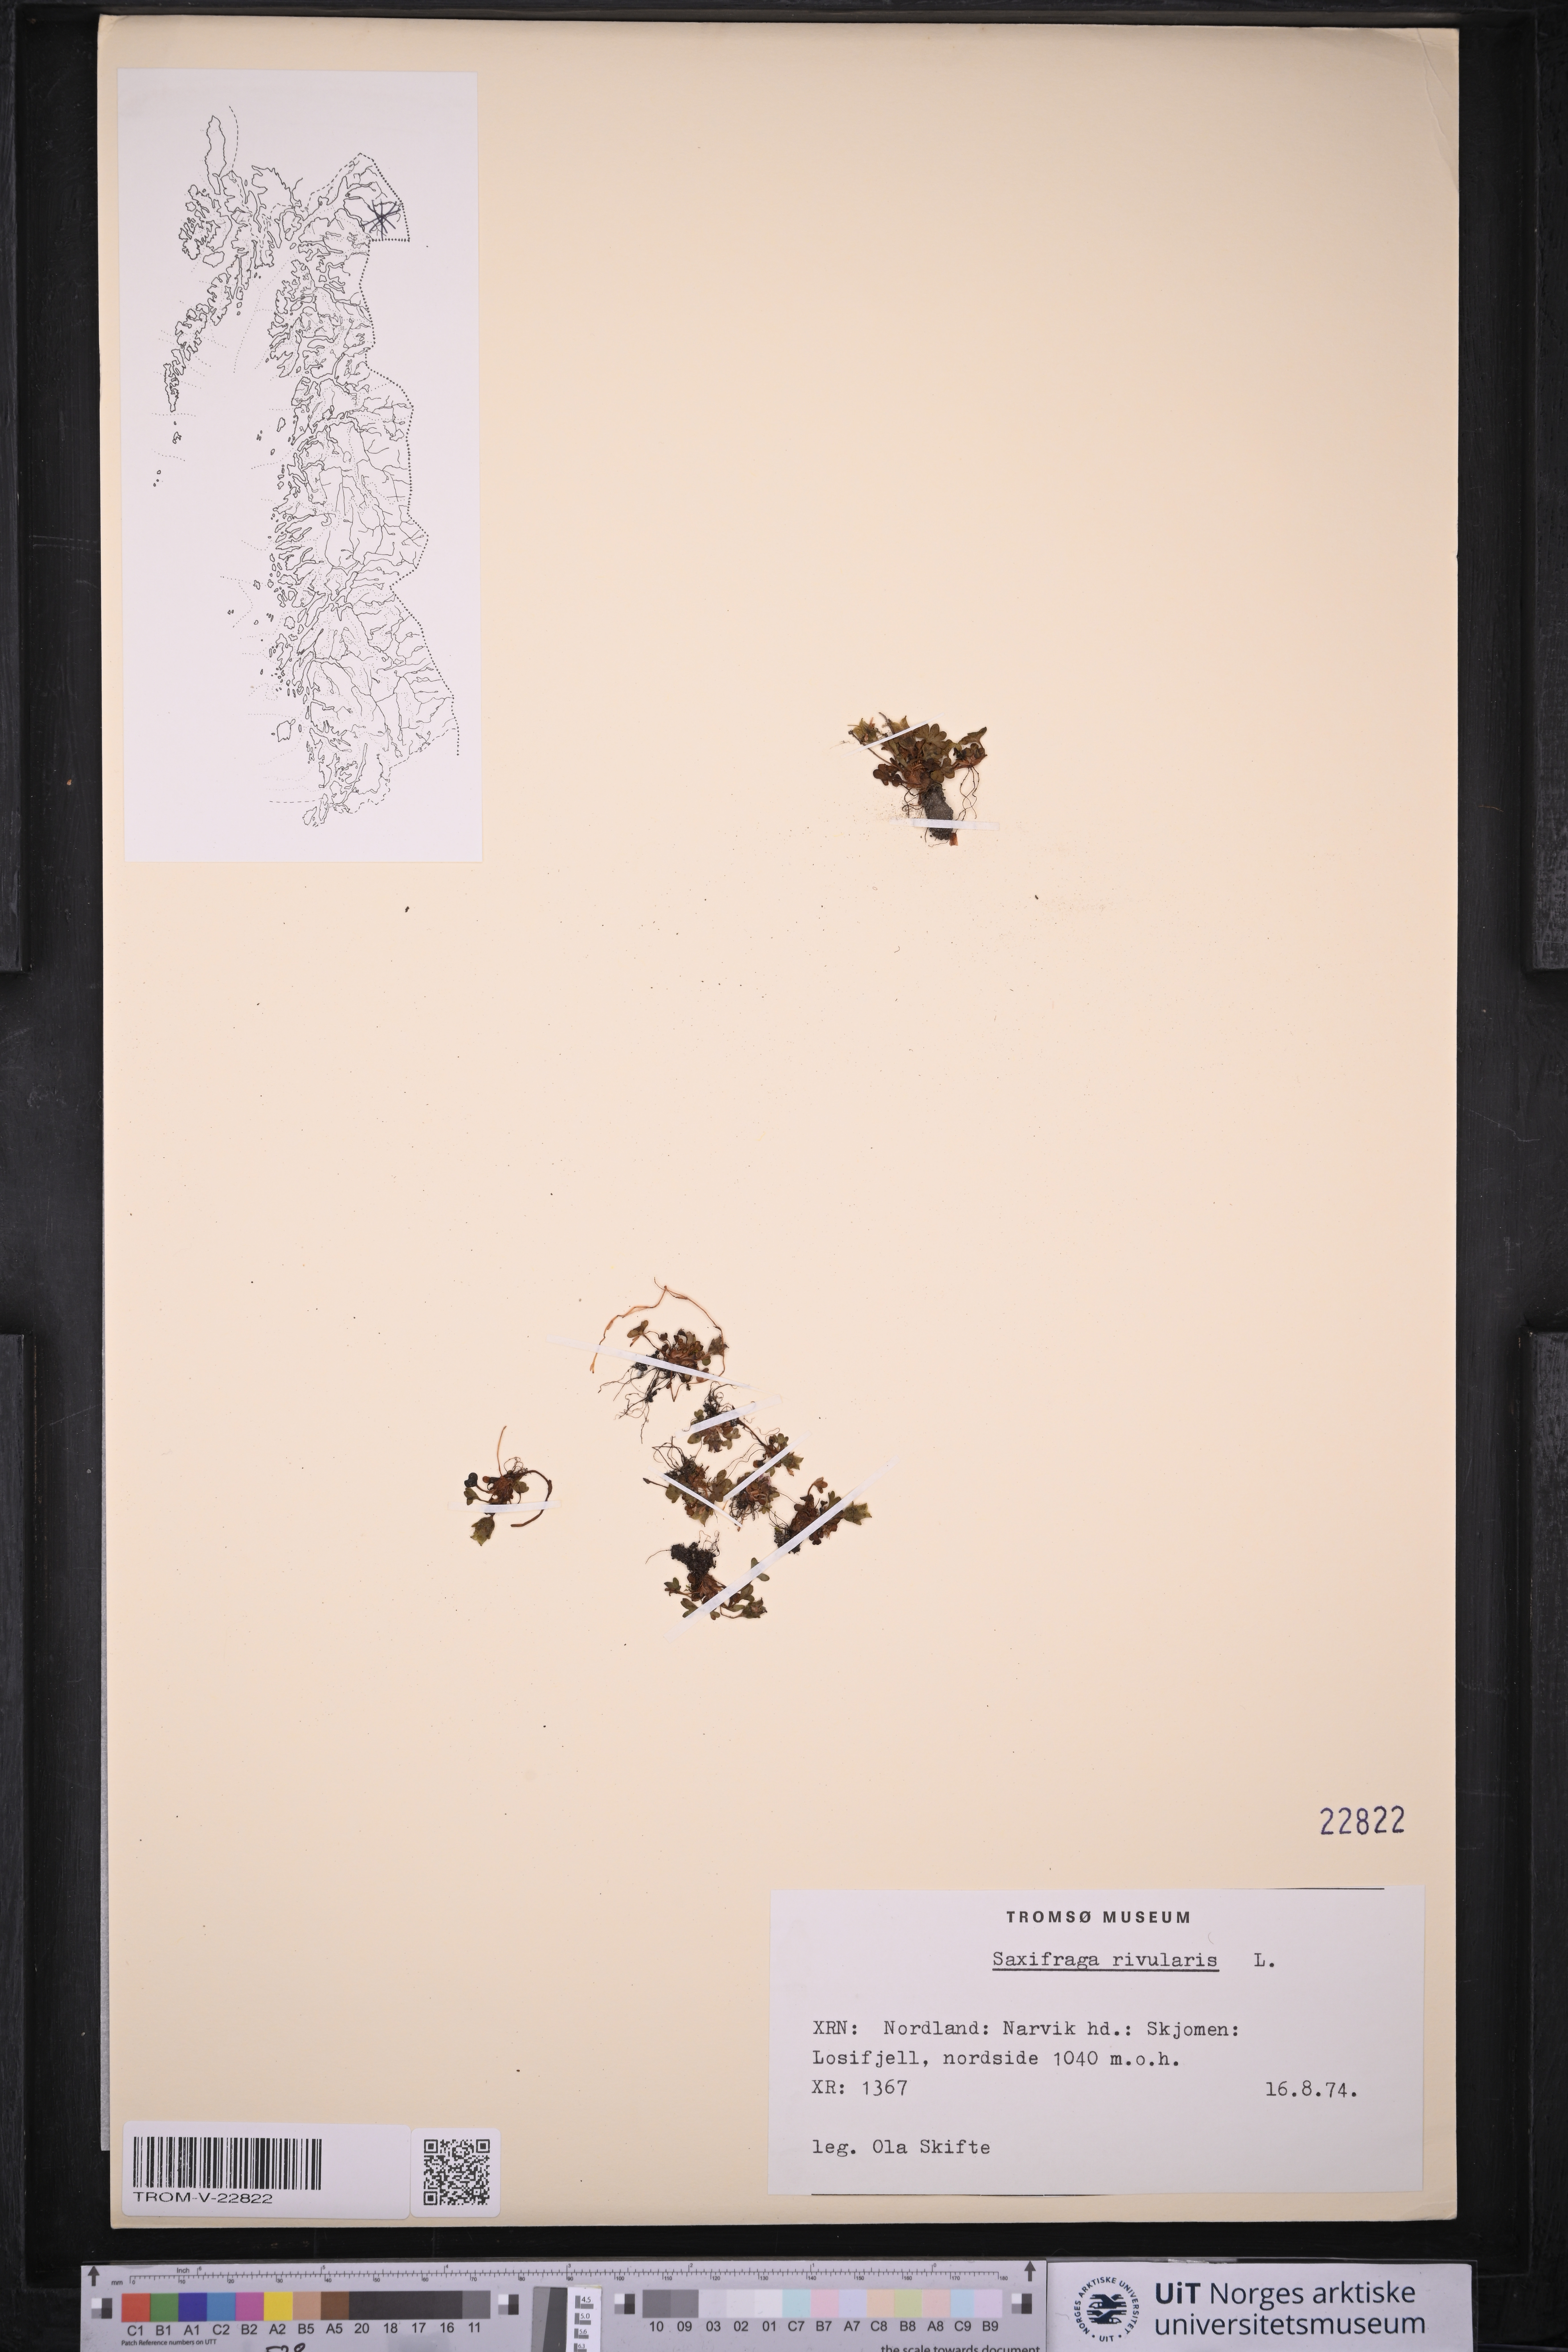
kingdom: Plantae
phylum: Tracheophyta
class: Magnoliopsida
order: Saxifragales
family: Saxifragaceae
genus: Saxifraga
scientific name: Saxifraga rivularis
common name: Highland saxifrage
